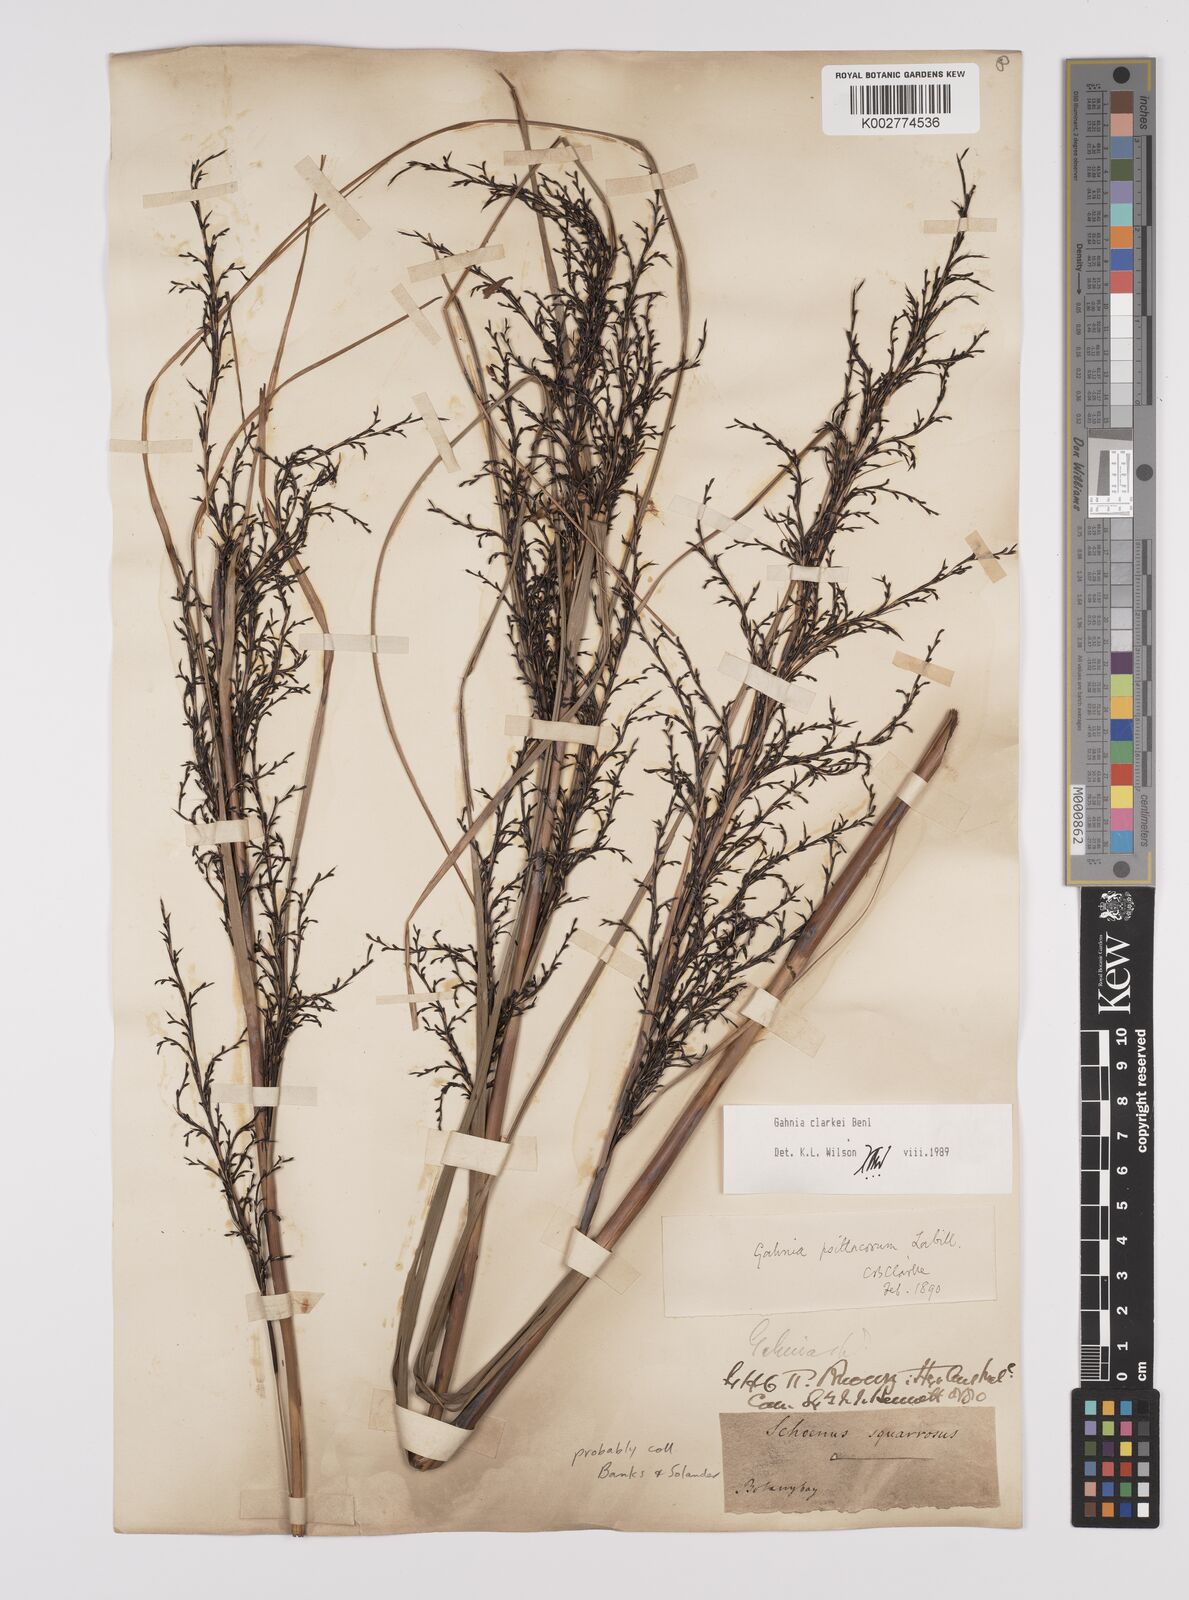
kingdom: Plantae
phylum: Tracheophyta
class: Liliopsida
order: Poales
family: Cyperaceae
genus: Gahnia
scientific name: Gahnia clarkei
